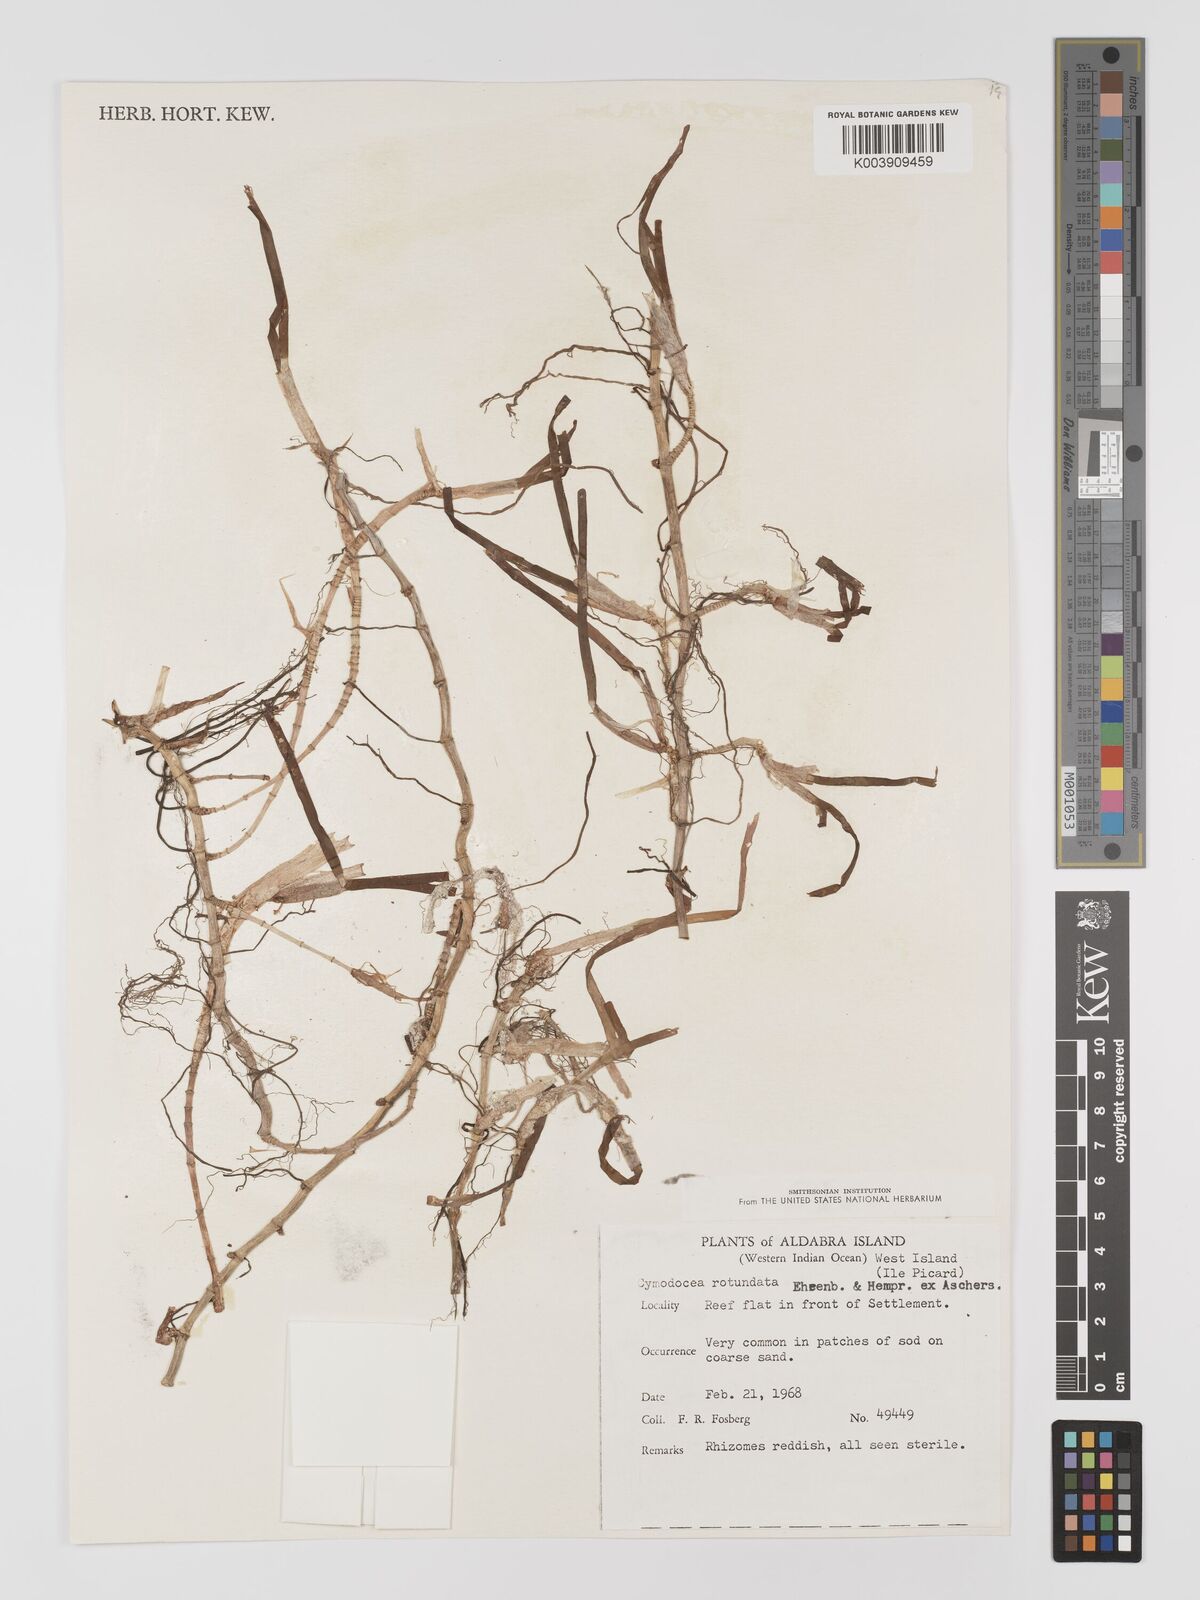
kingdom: Plantae
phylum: Tracheophyta
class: Liliopsida
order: Alismatales
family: Cymodoceaceae
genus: Cymodocea
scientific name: Cymodocea rotundata
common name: Species code: cr
